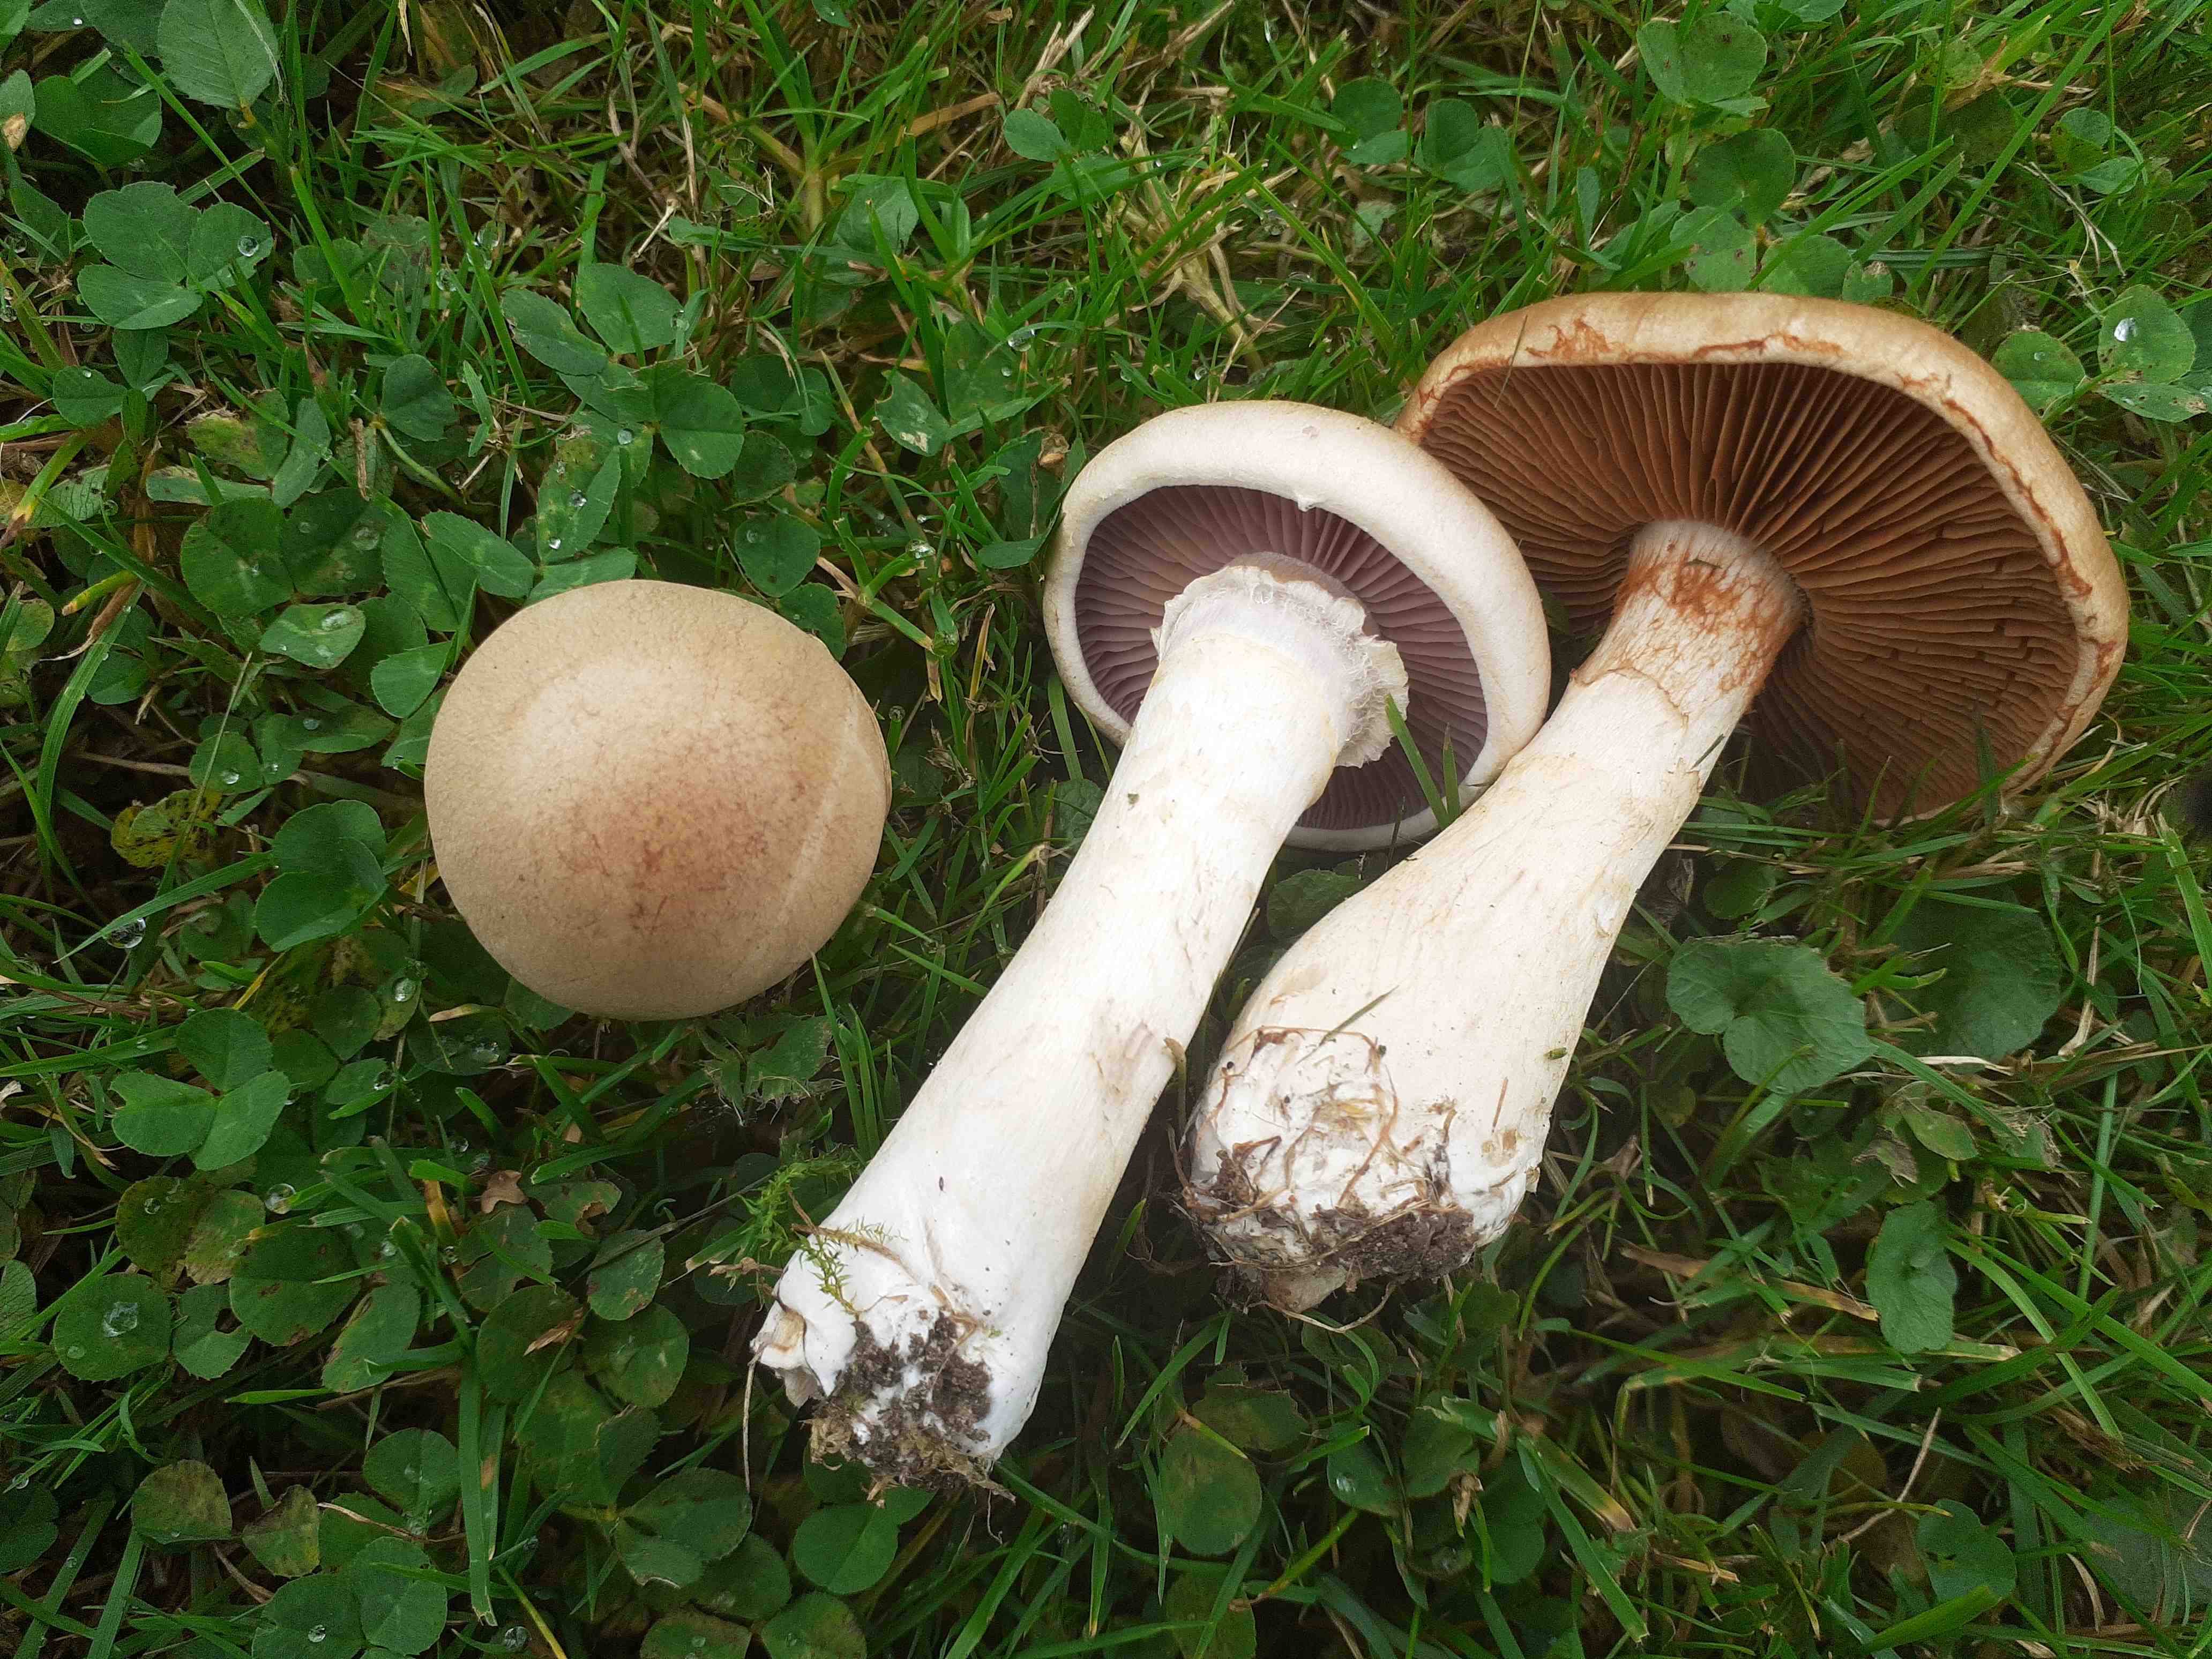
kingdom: Fungi
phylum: Basidiomycota
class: Agaricomycetes
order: Agaricales
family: Cortinariaceae
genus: Cortinarius
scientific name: Cortinarius anomalus
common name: Variable webcap
